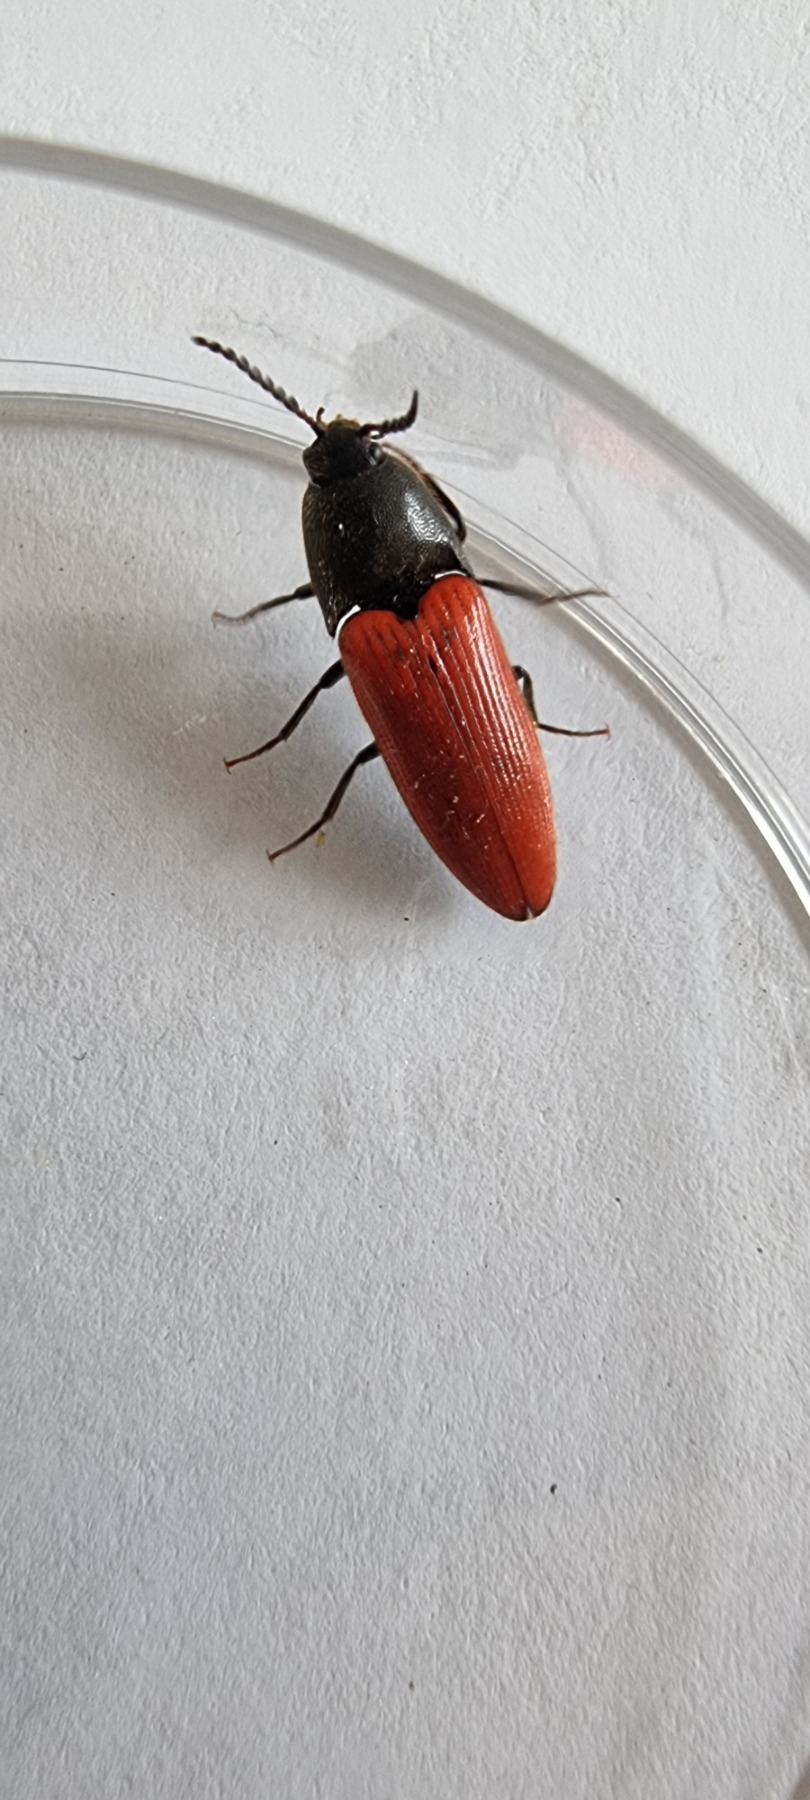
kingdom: Animalia
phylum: Arthropoda
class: Insecta
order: Coleoptera
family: Elateridae
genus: Ampedus
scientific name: Ampedus cinnabarinus
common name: Rød skovsmælder
